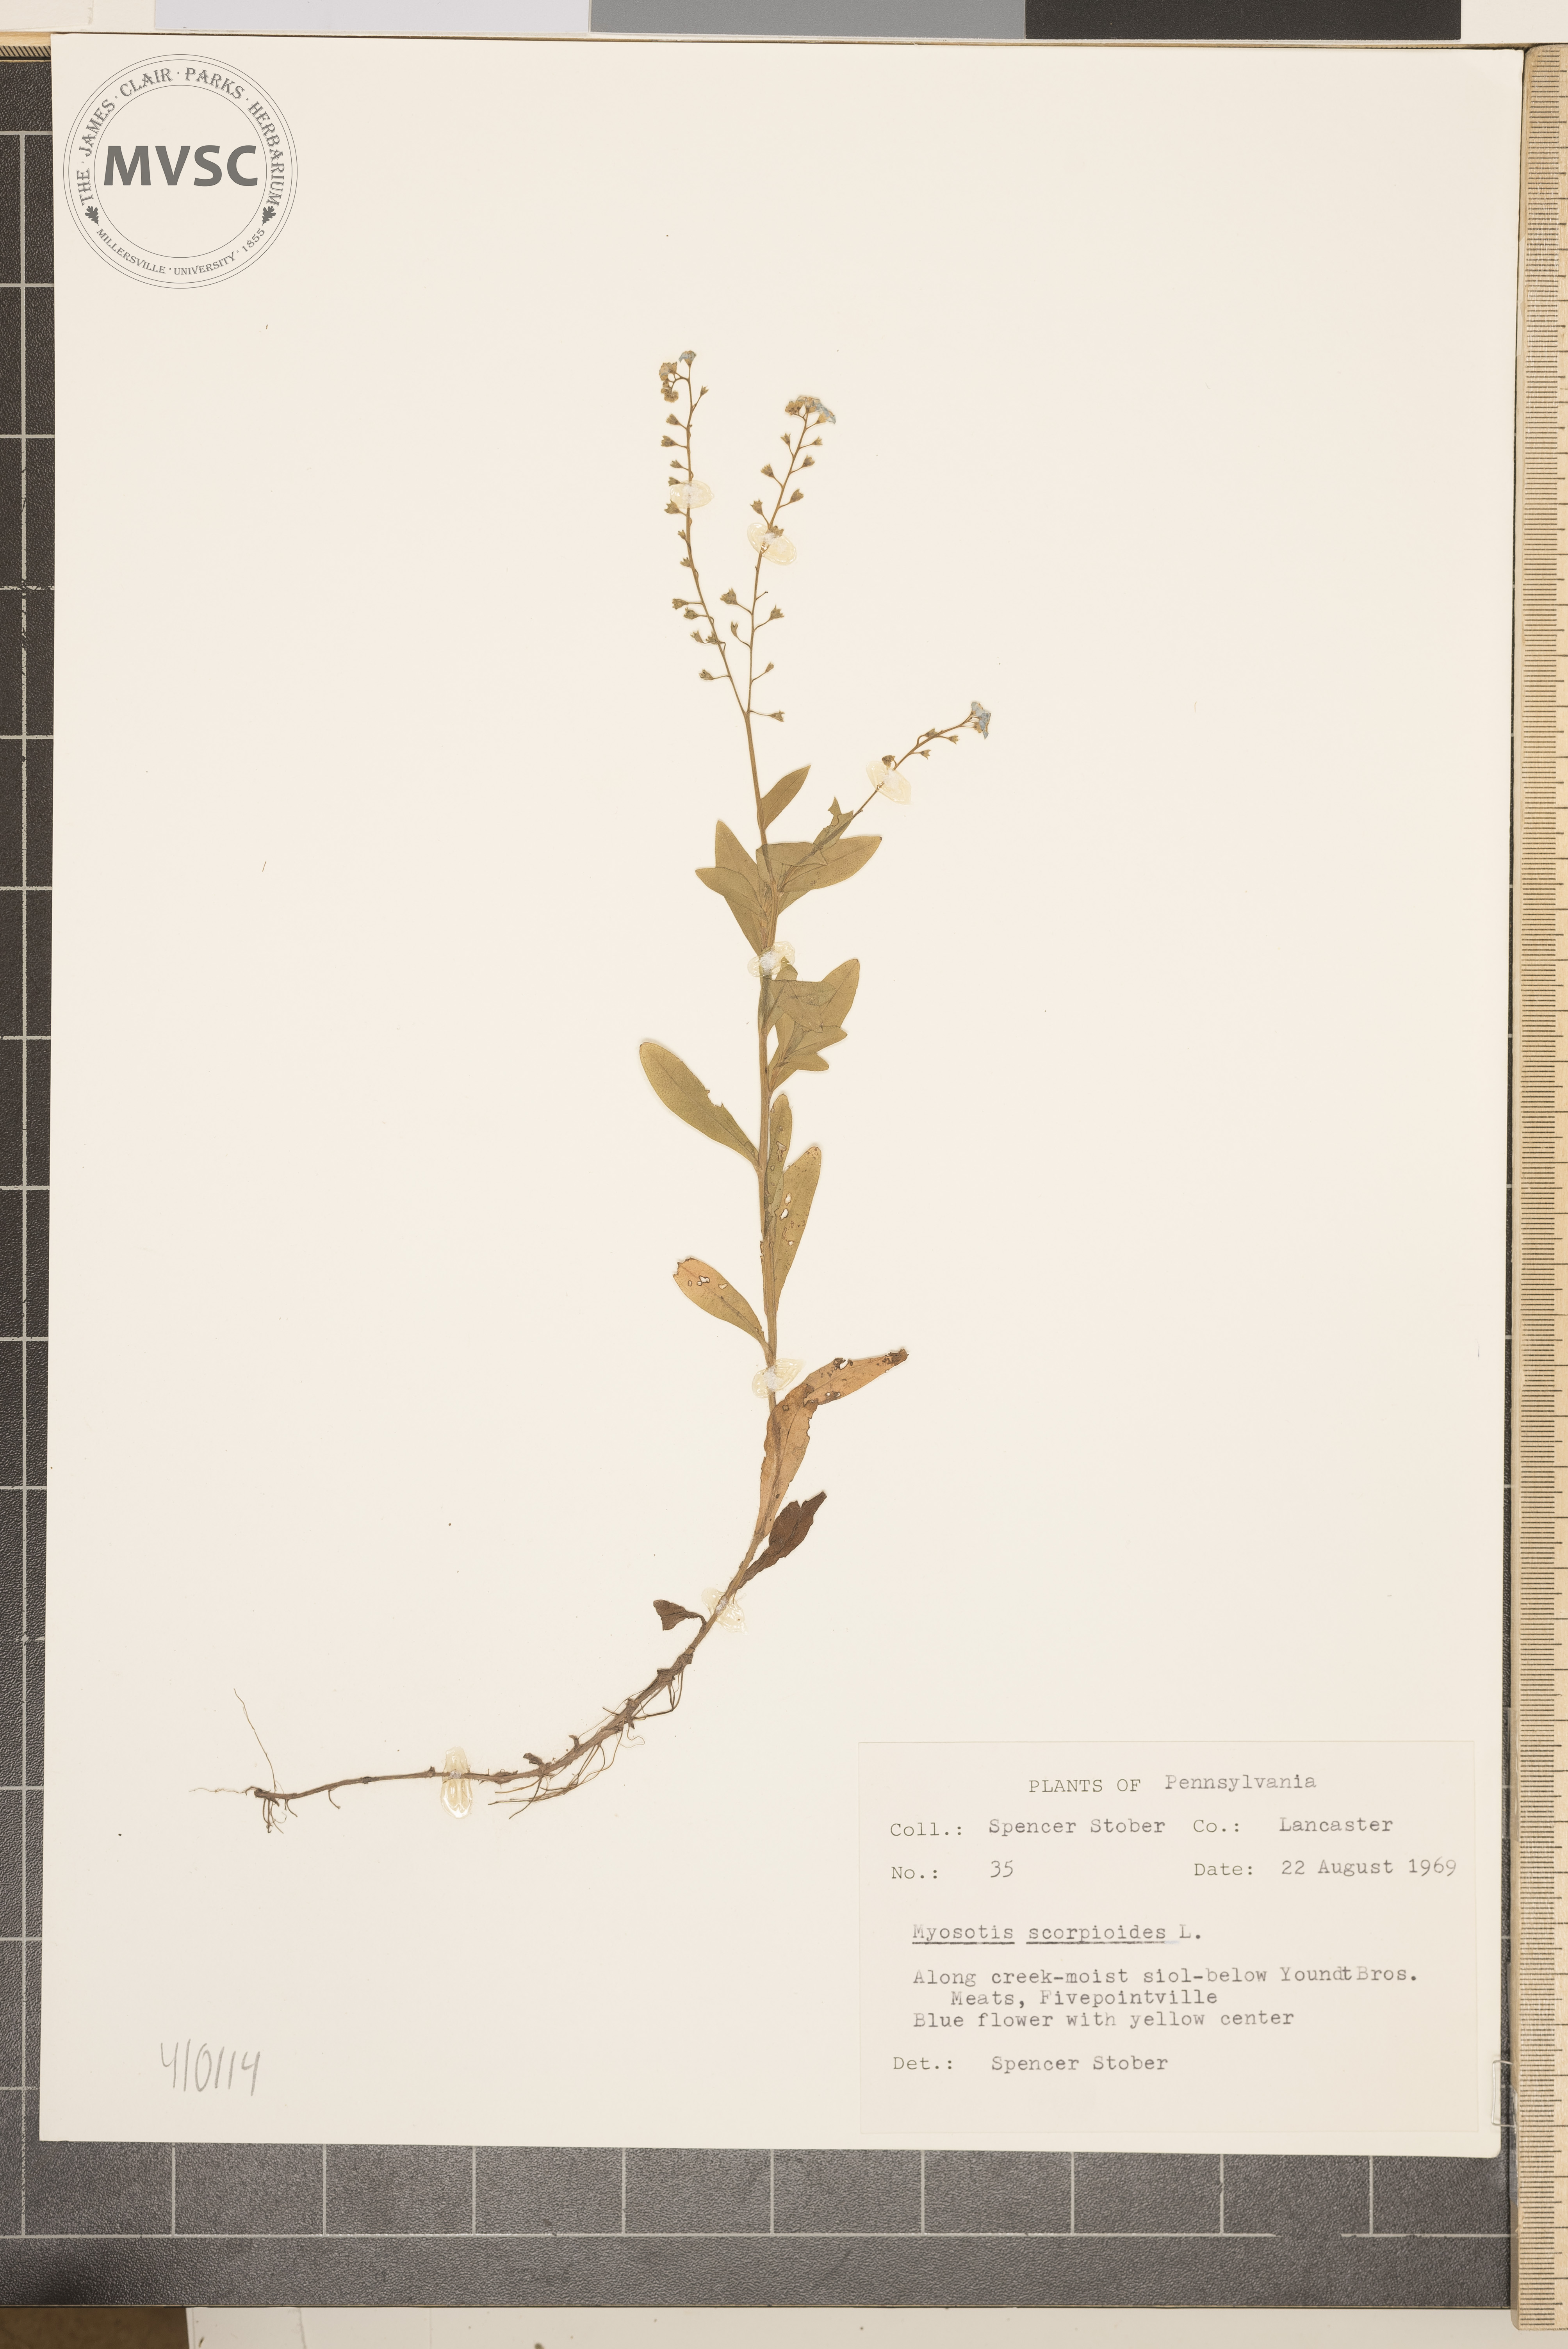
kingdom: Plantae
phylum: Tracheophyta
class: Magnoliopsida
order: Boraginales
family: Boraginaceae
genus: Myosotis
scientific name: Myosotis scorpioides
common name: Water forget-me-not
